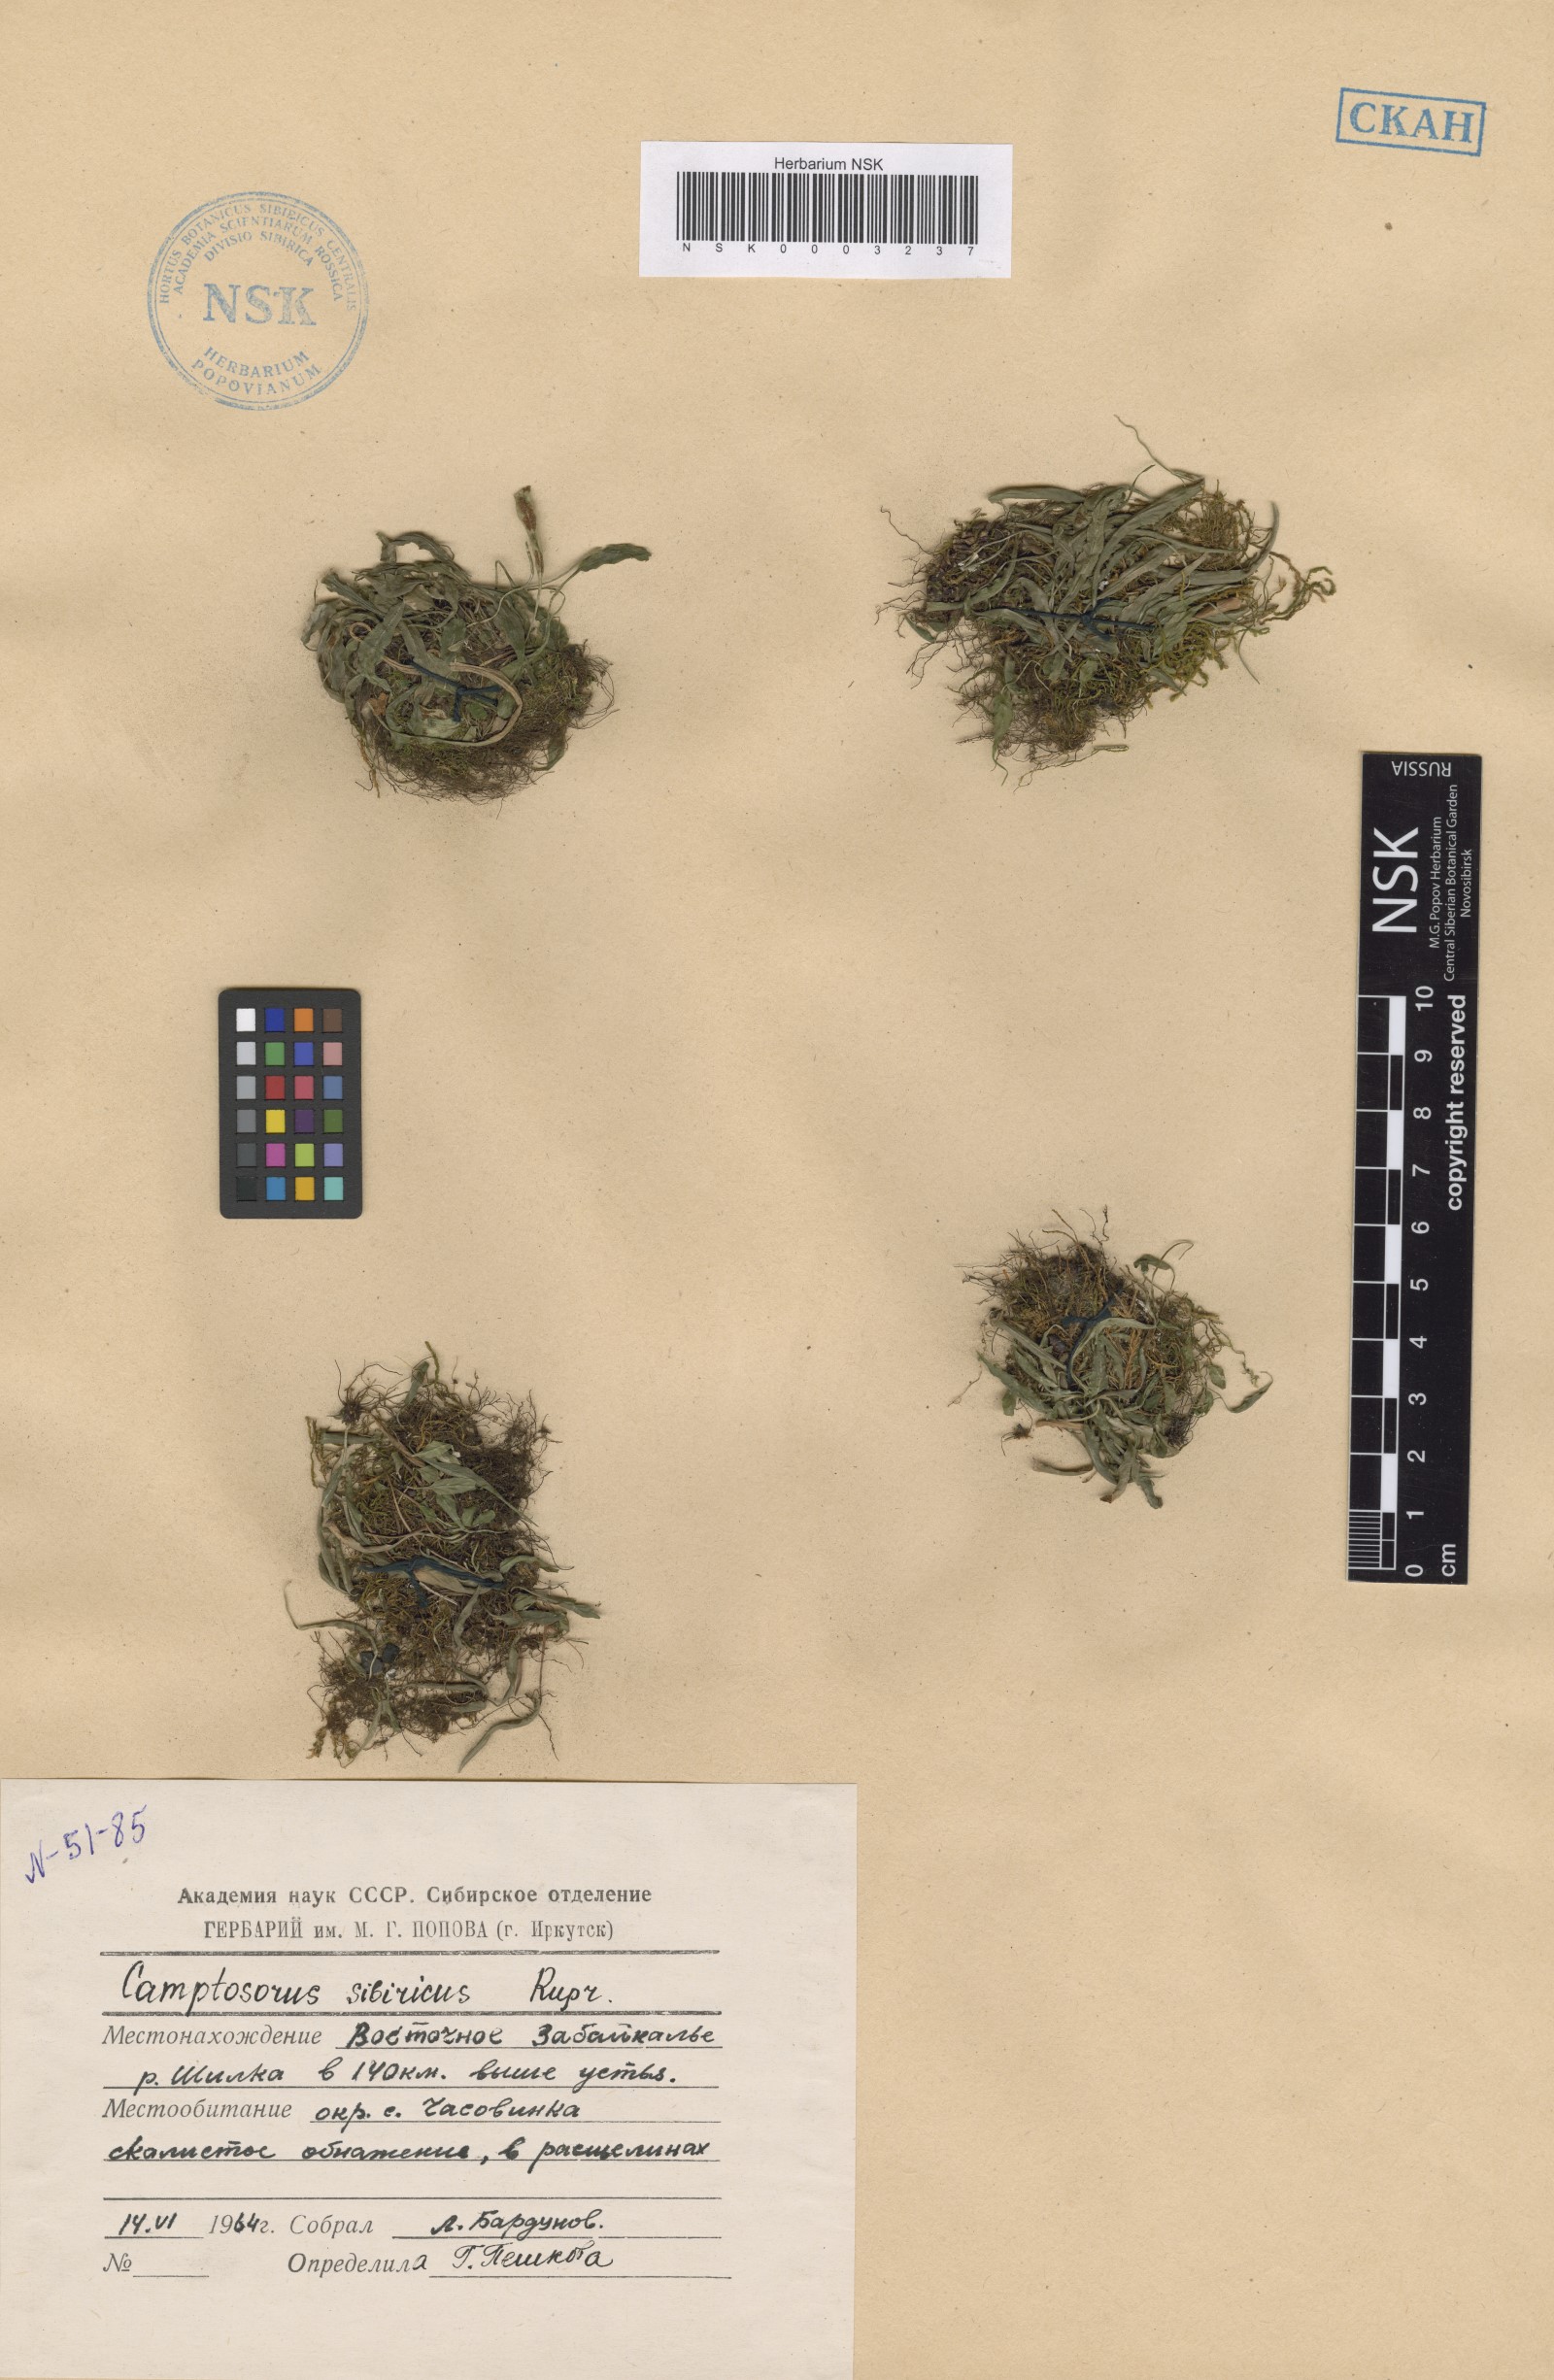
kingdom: Plantae
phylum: Tracheophyta
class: Polypodiopsida
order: Polypodiales
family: Aspleniaceae
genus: Asplenium
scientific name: Asplenium ruprechtii
